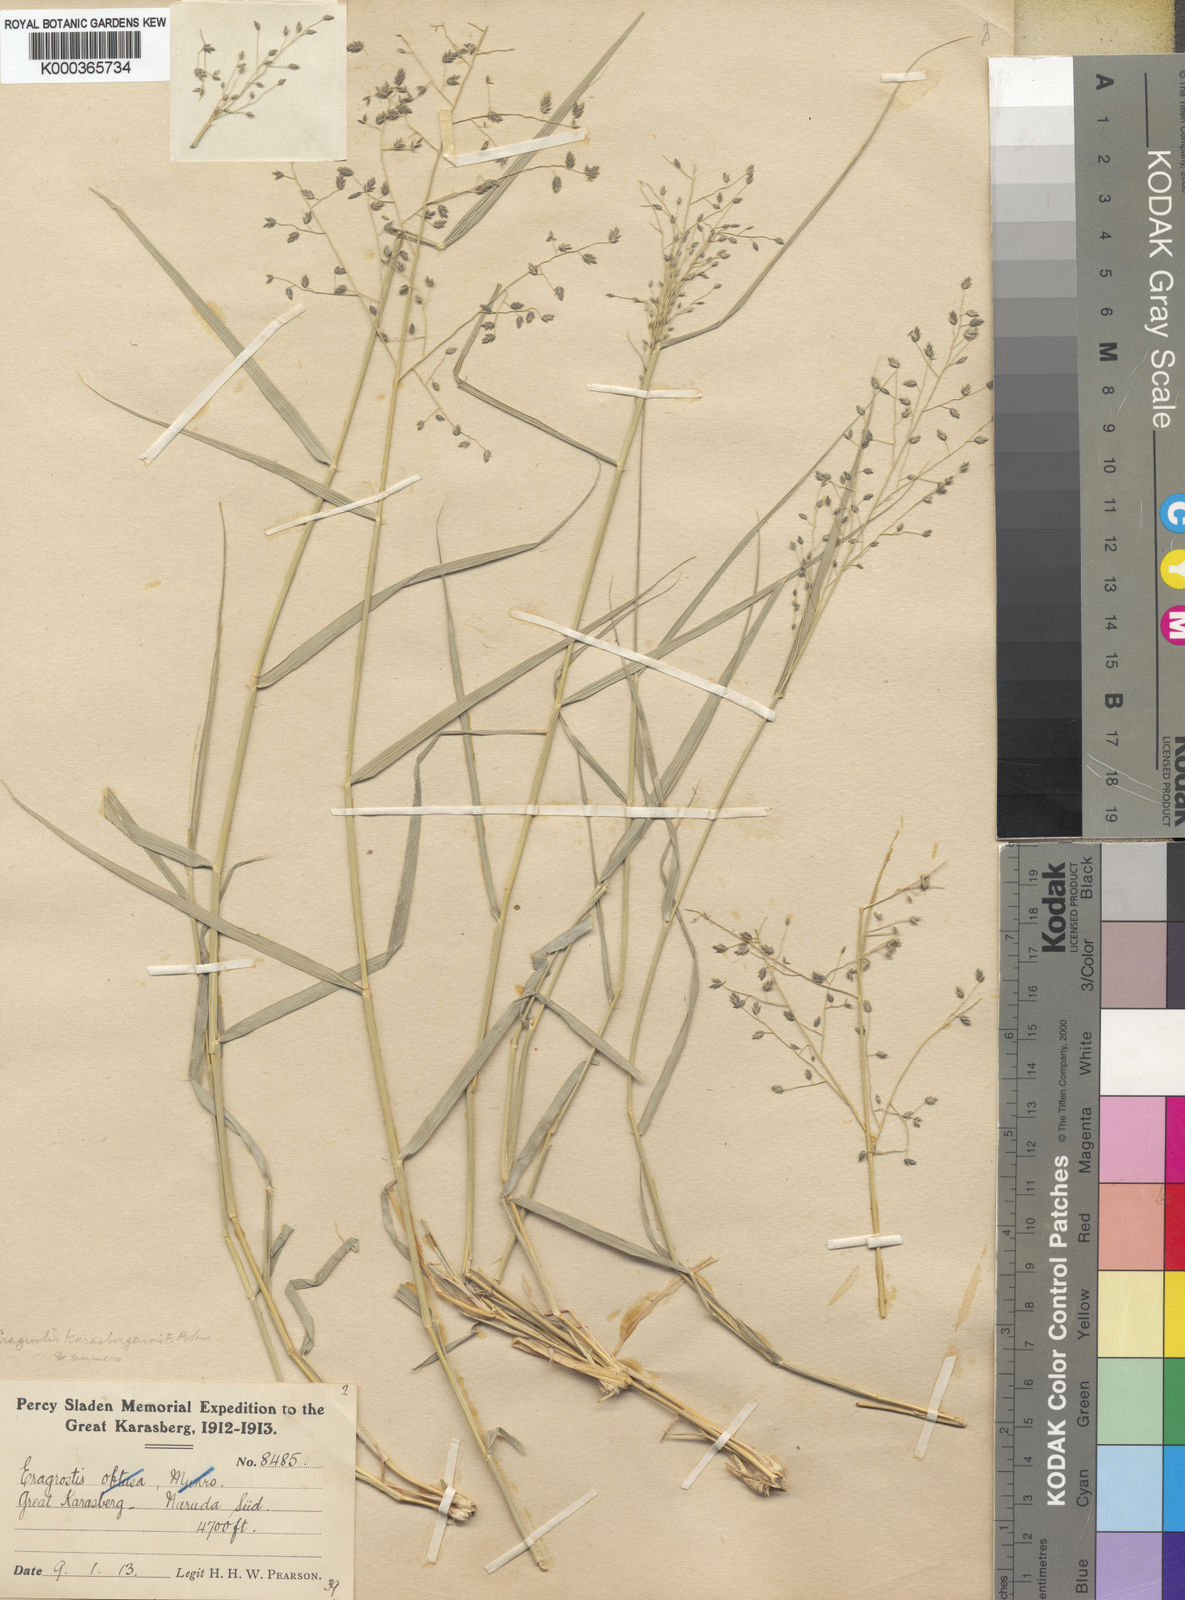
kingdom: Plantae
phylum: Tracheophyta
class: Liliopsida
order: Poales
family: Poaceae
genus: Eragrostis
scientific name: Eragrostis scopelophila
